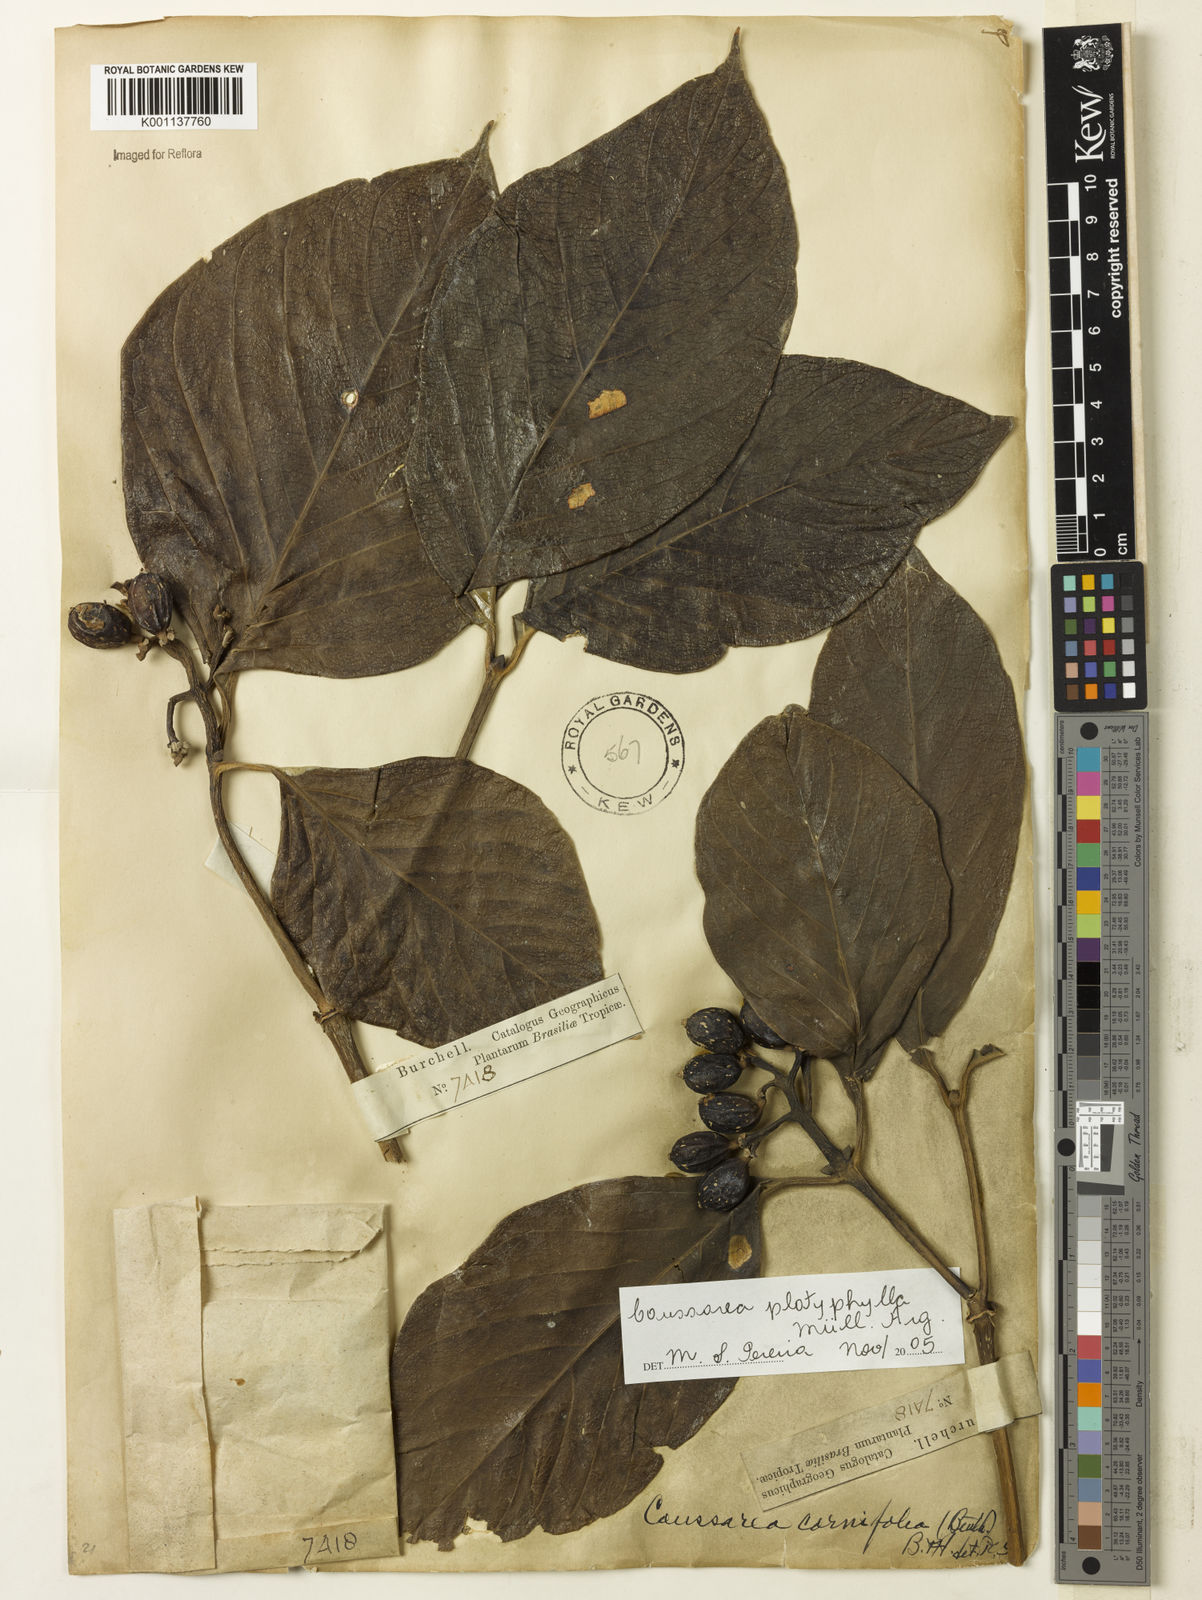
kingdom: Plantae
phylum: Tracheophyta
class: Magnoliopsida
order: Gentianales
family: Rubiaceae
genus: Coussarea
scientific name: Coussarea
